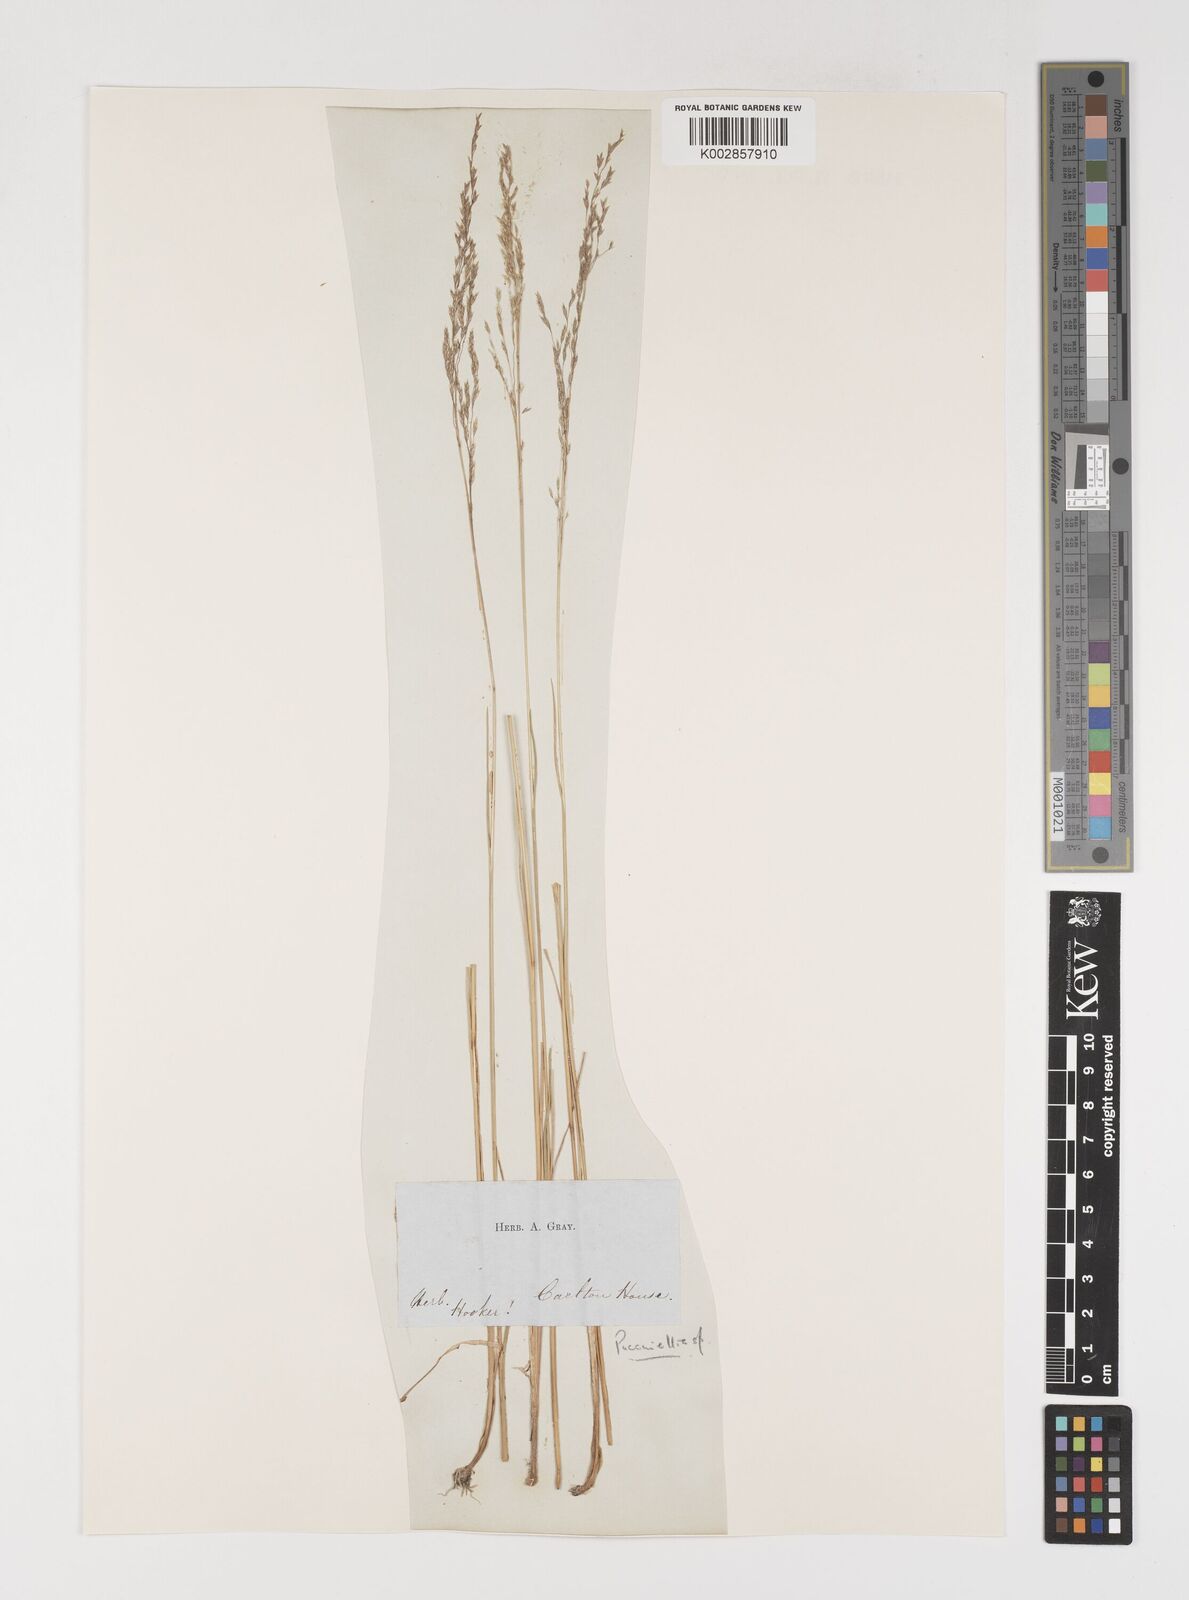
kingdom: Plantae
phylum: Tracheophyta
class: Liliopsida
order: Poales
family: Poaceae
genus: Puccinellia
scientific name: Puccinellia
